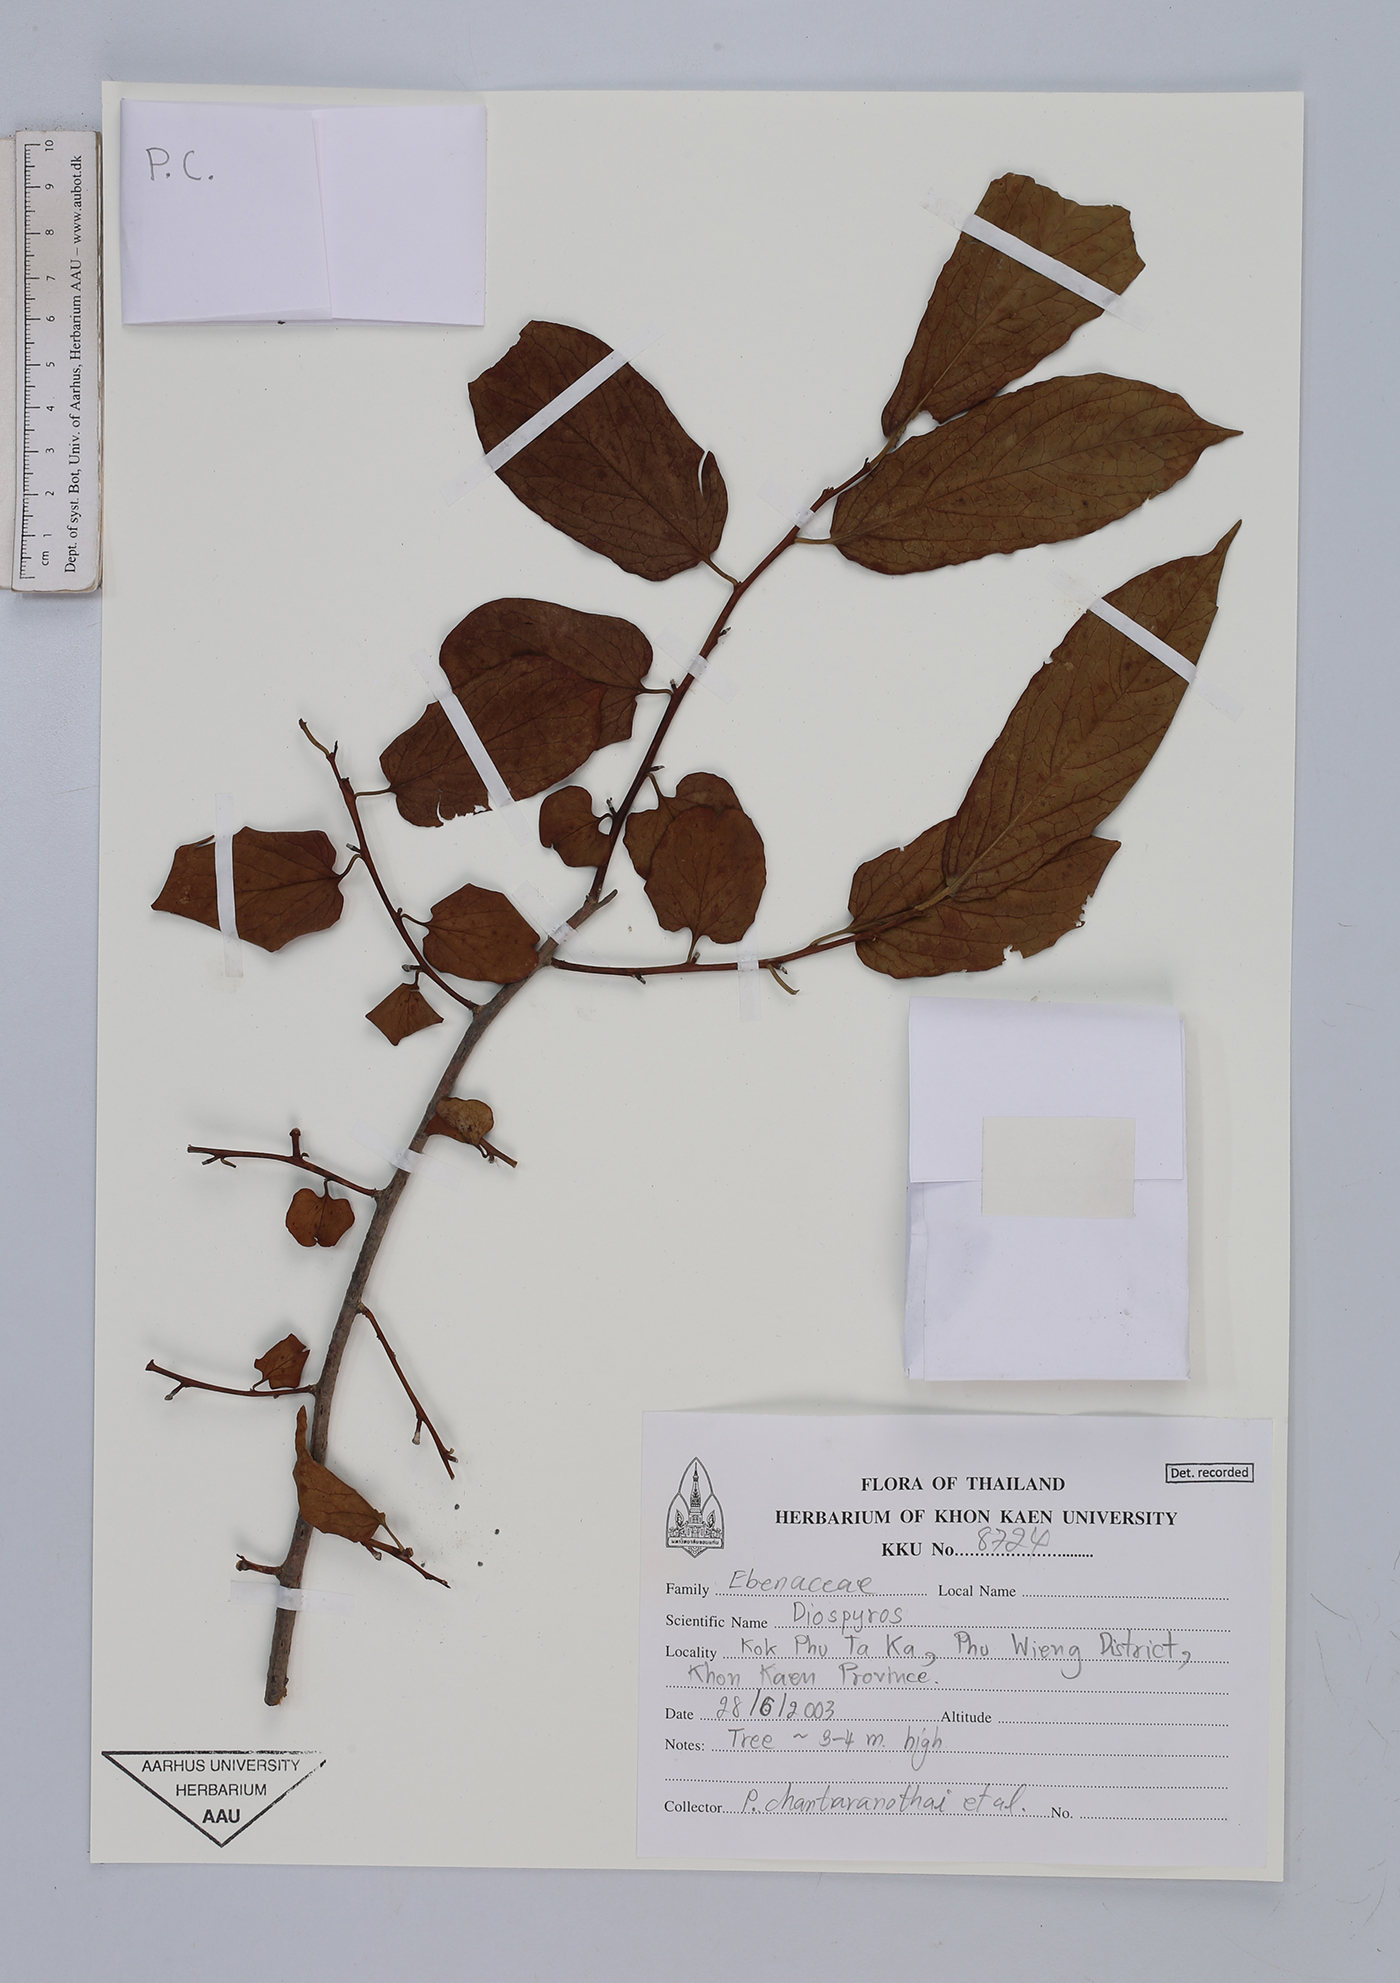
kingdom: Plantae
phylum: Tracheophyta
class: Magnoliopsida
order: Ericales
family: Ebenaceae
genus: Diospyros
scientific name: Diospyros
